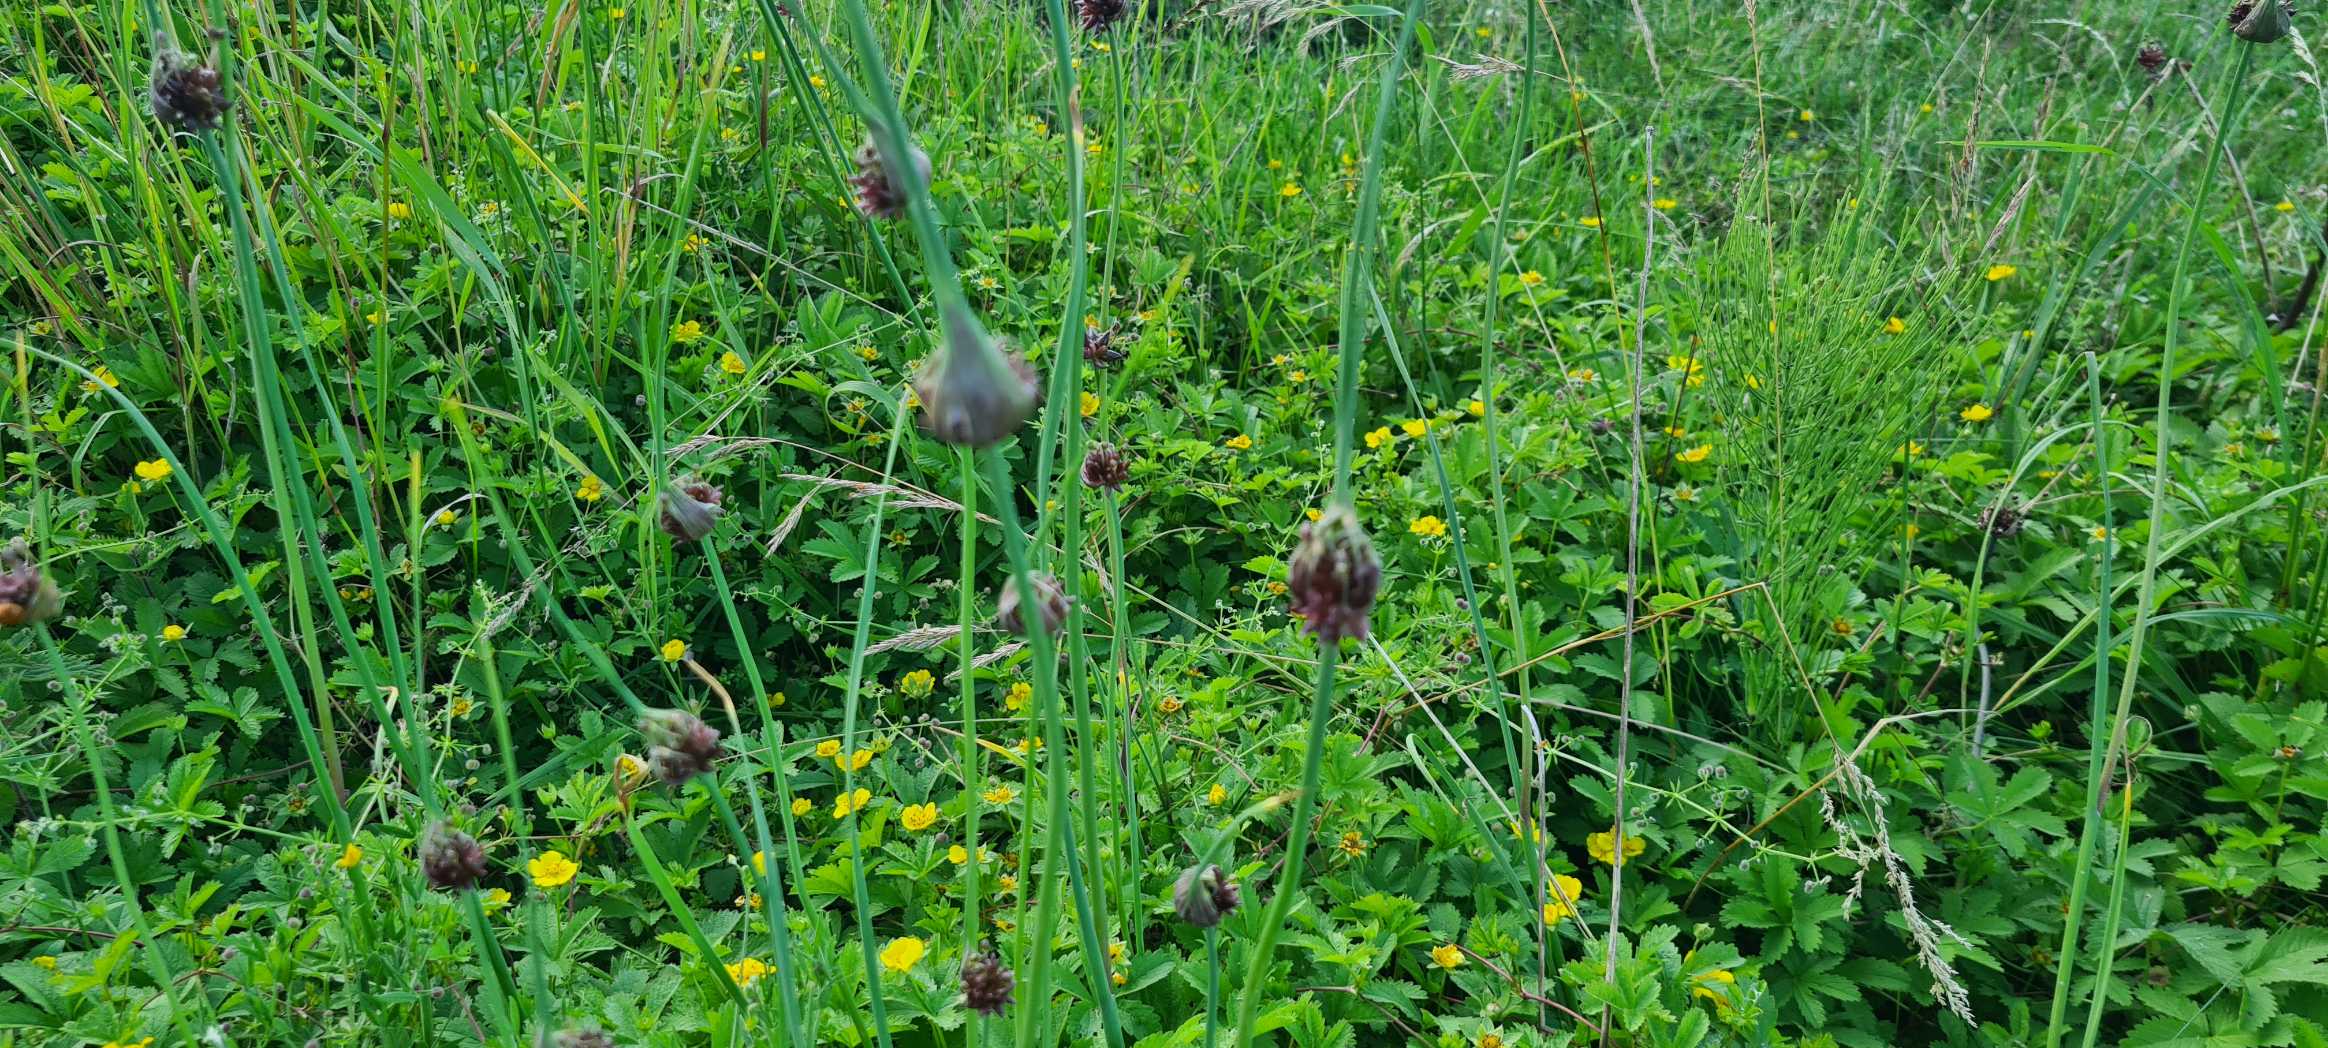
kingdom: Plantae
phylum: Tracheophyta
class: Liliopsida
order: Asparagales
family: Amaryllidaceae
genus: Allium
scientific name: Allium oleraceum
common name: Vild løg
